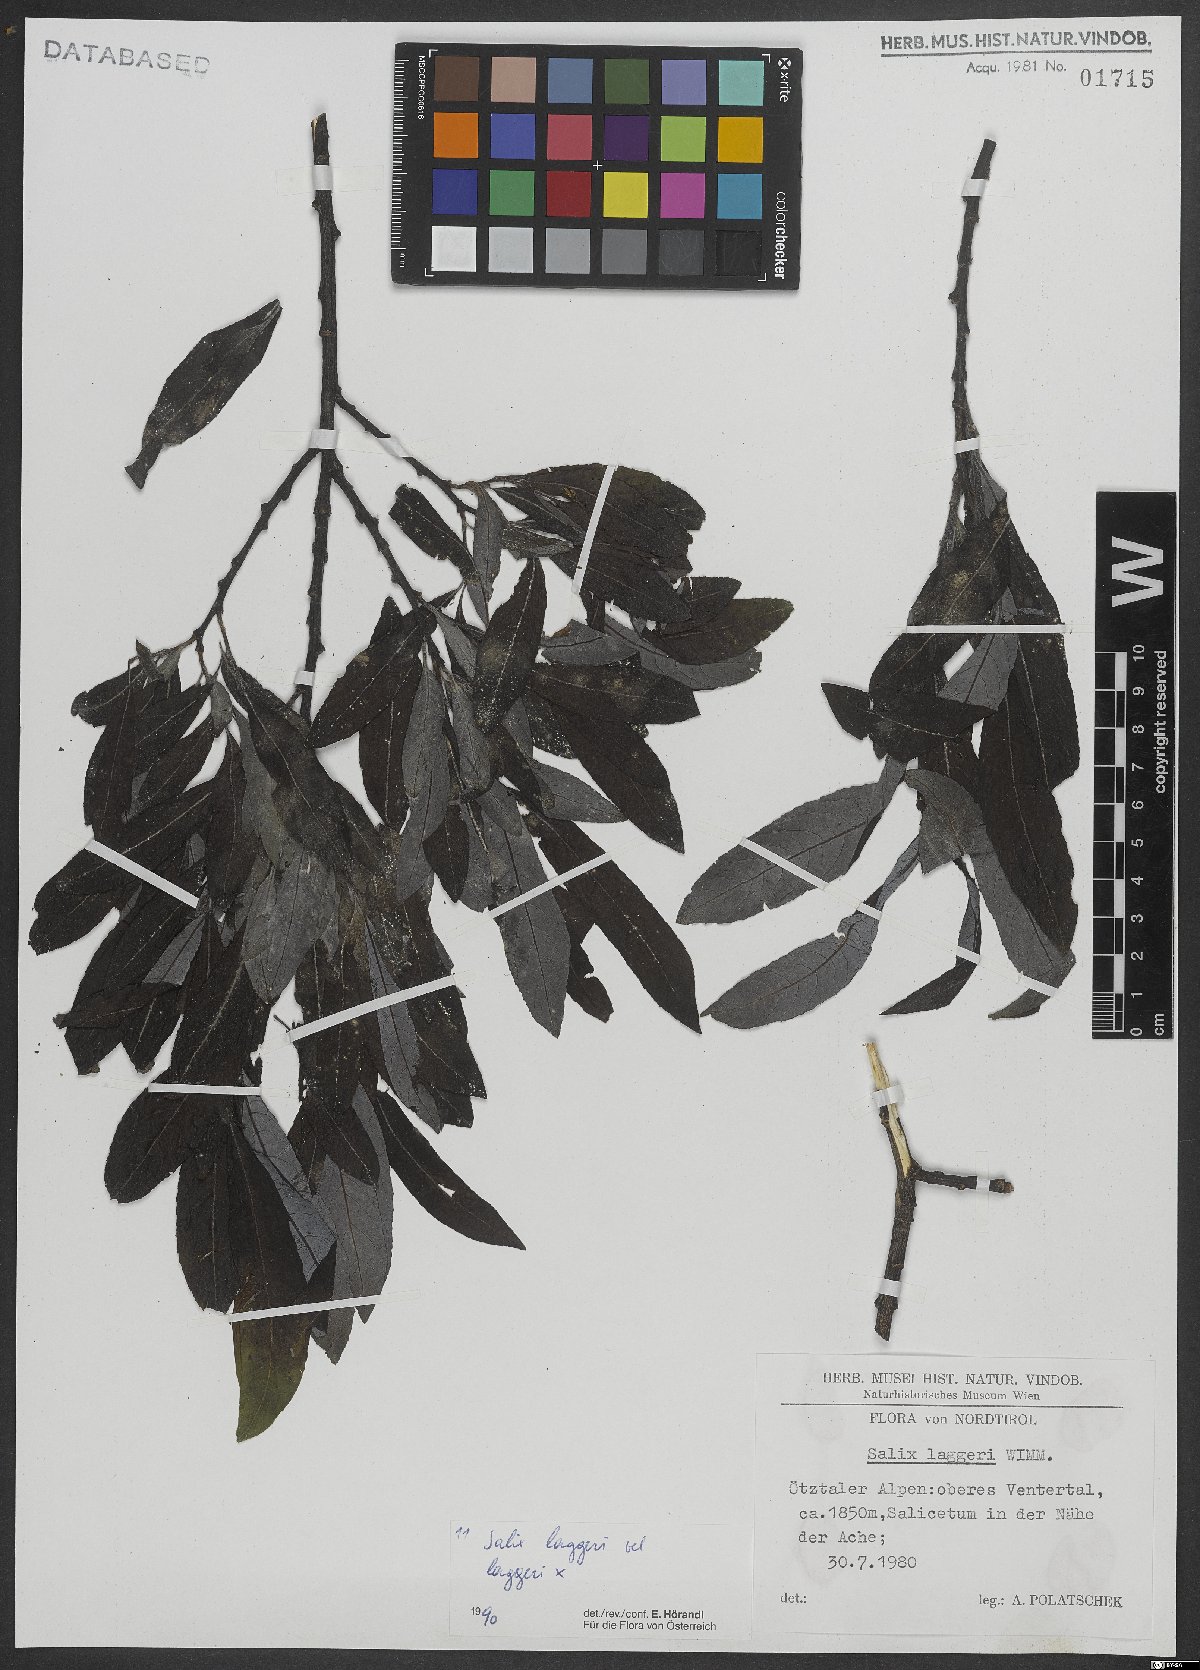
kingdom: Plantae
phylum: Tracheophyta
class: Magnoliopsida
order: Malpighiales
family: Salicaceae
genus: Salix
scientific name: Salix laggeri
